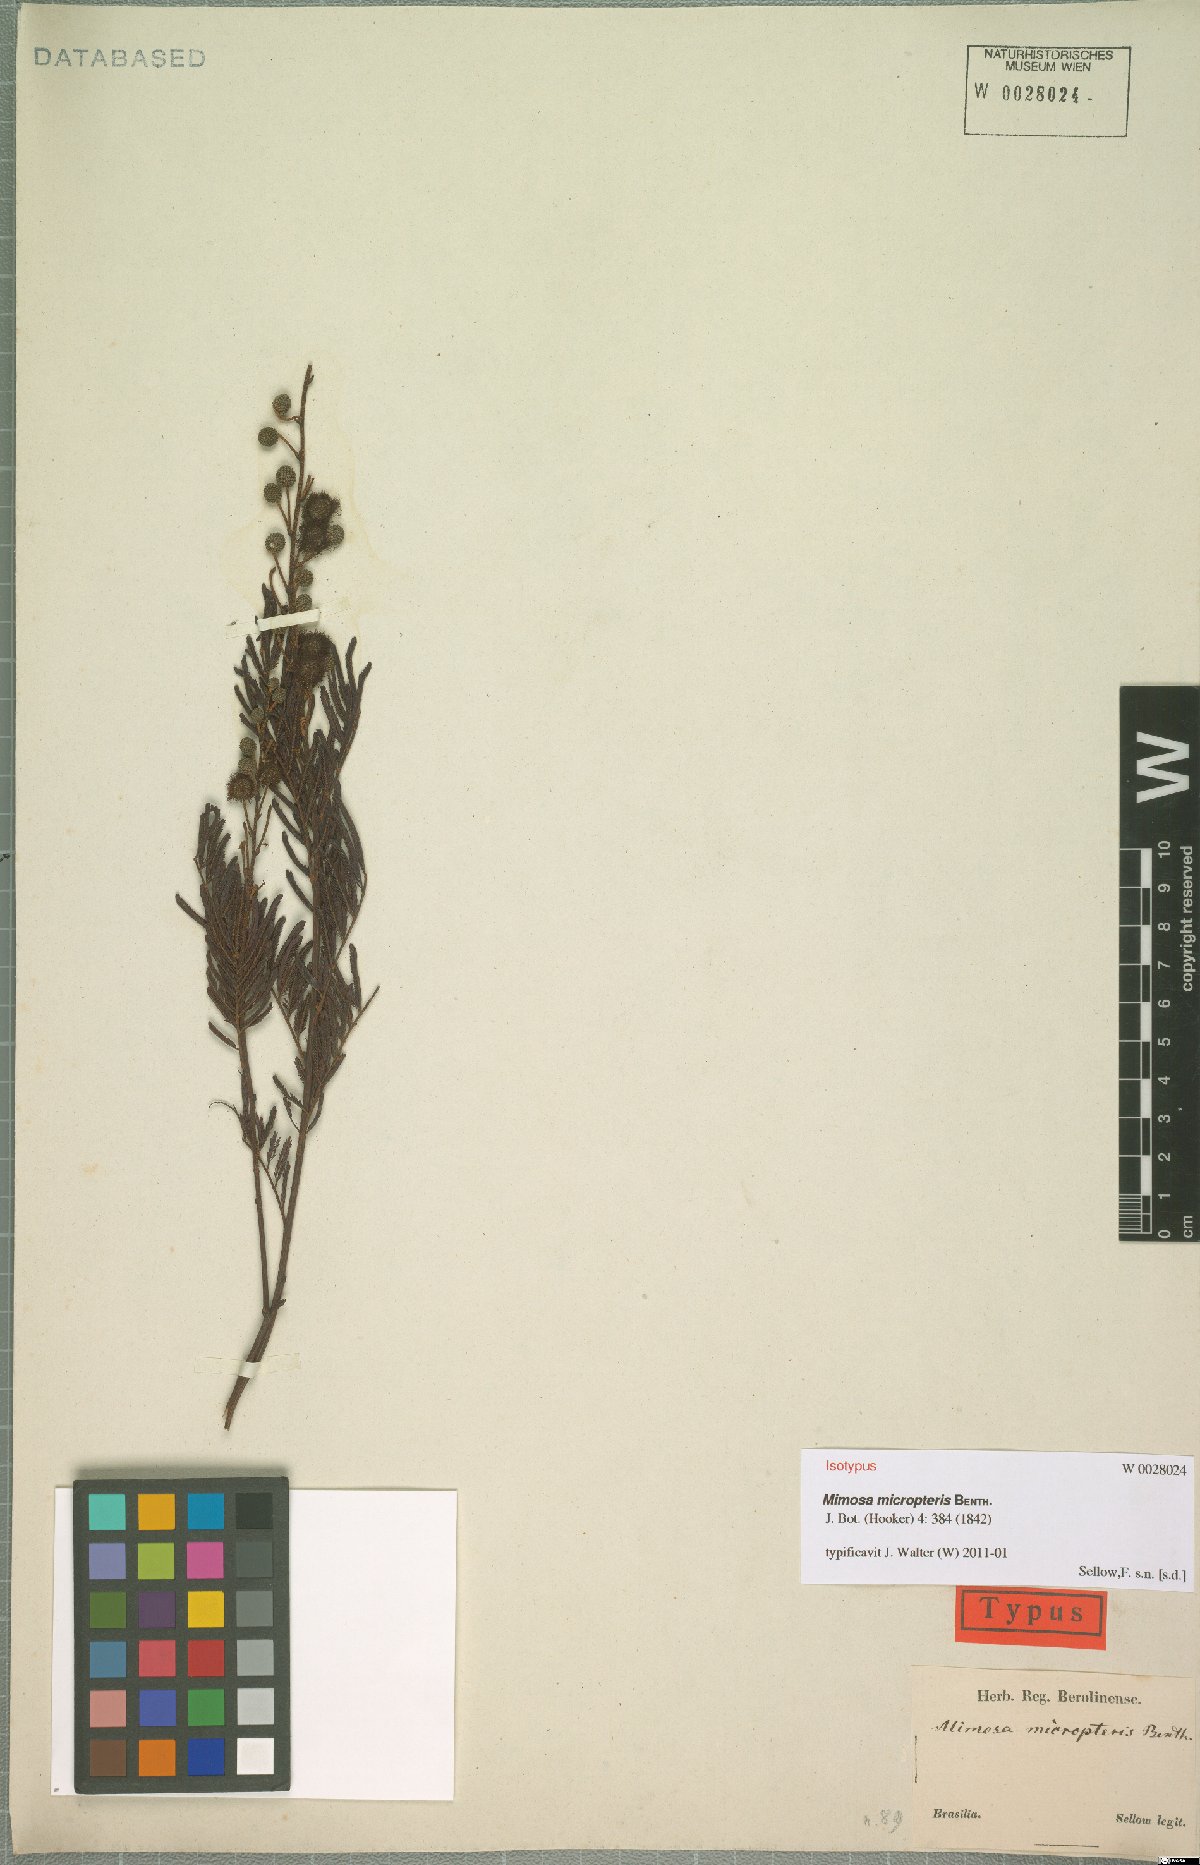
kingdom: Plantae
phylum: Tracheophyta
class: Magnoliopsida
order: Fabales
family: Fabaceae
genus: Mimosa
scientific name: Mimosa micropteris
